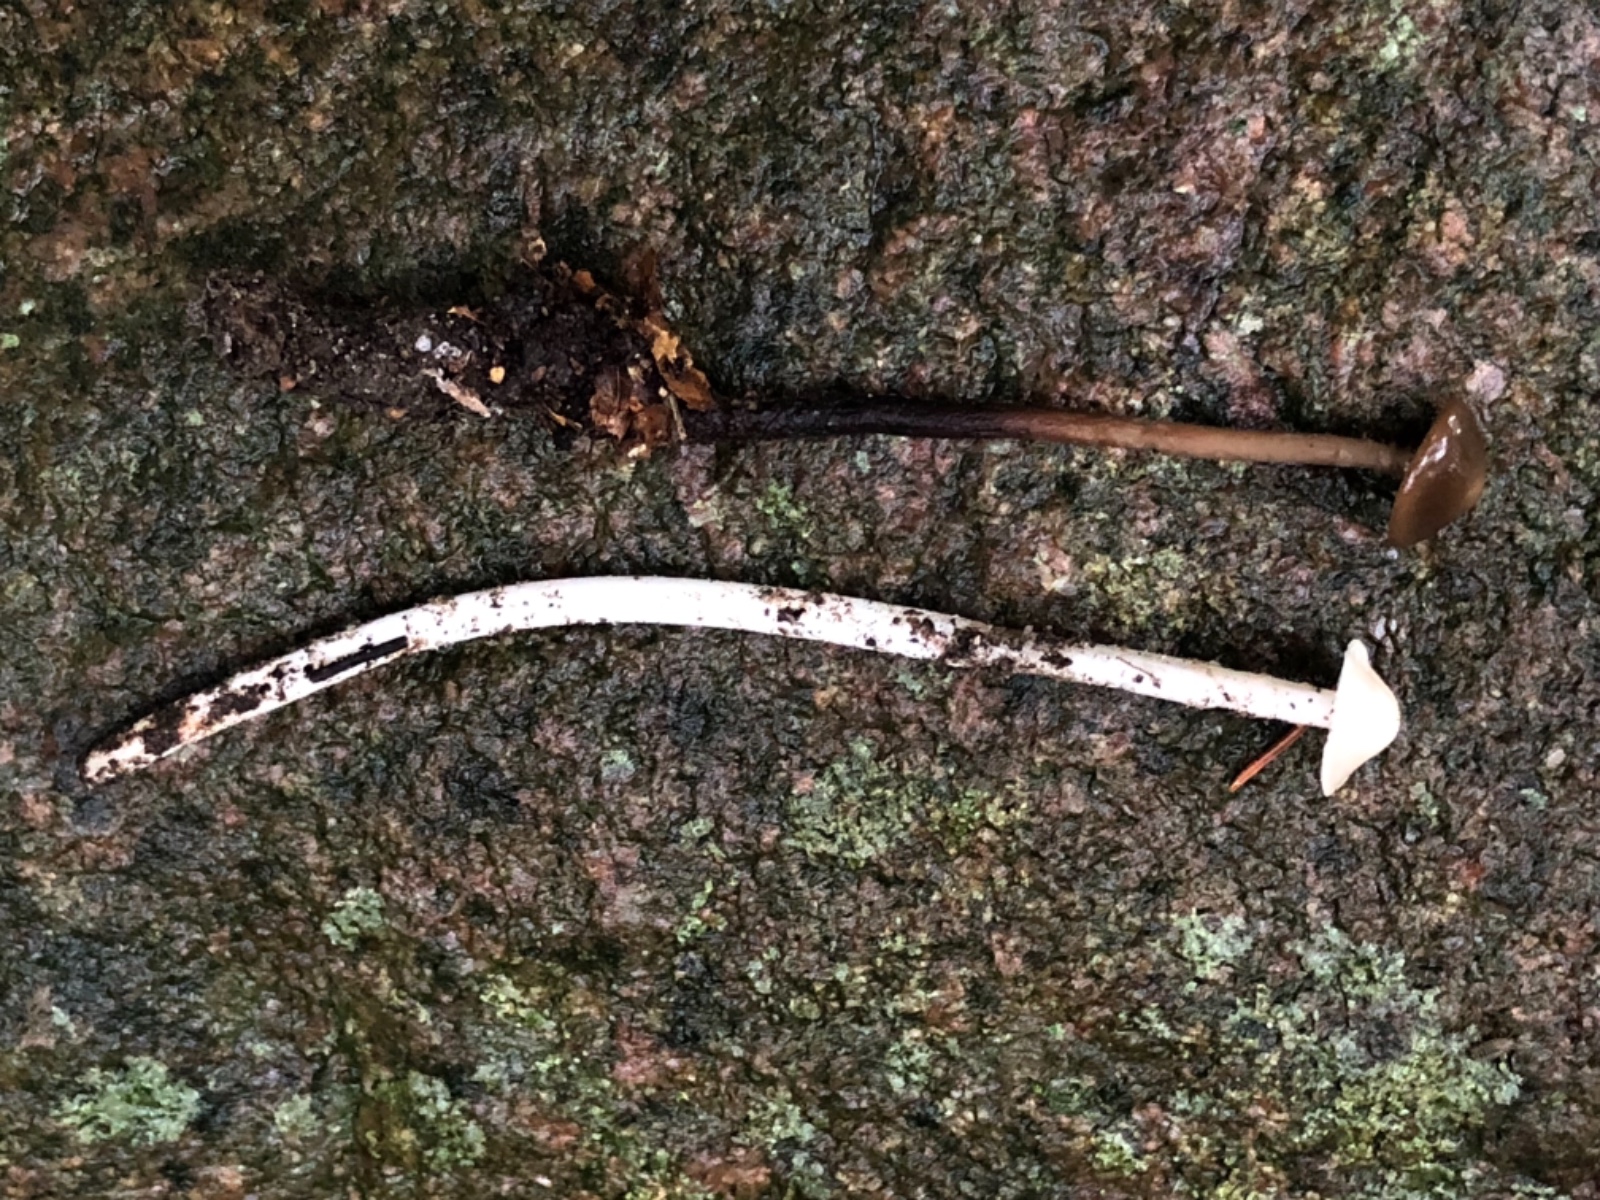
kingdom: Fungi
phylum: Basidiomycota
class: Agaricomycetes
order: Agaricales
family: Omphalotaceae
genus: Mycetinis
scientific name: Mycetinis alliaceus
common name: stor løghat
